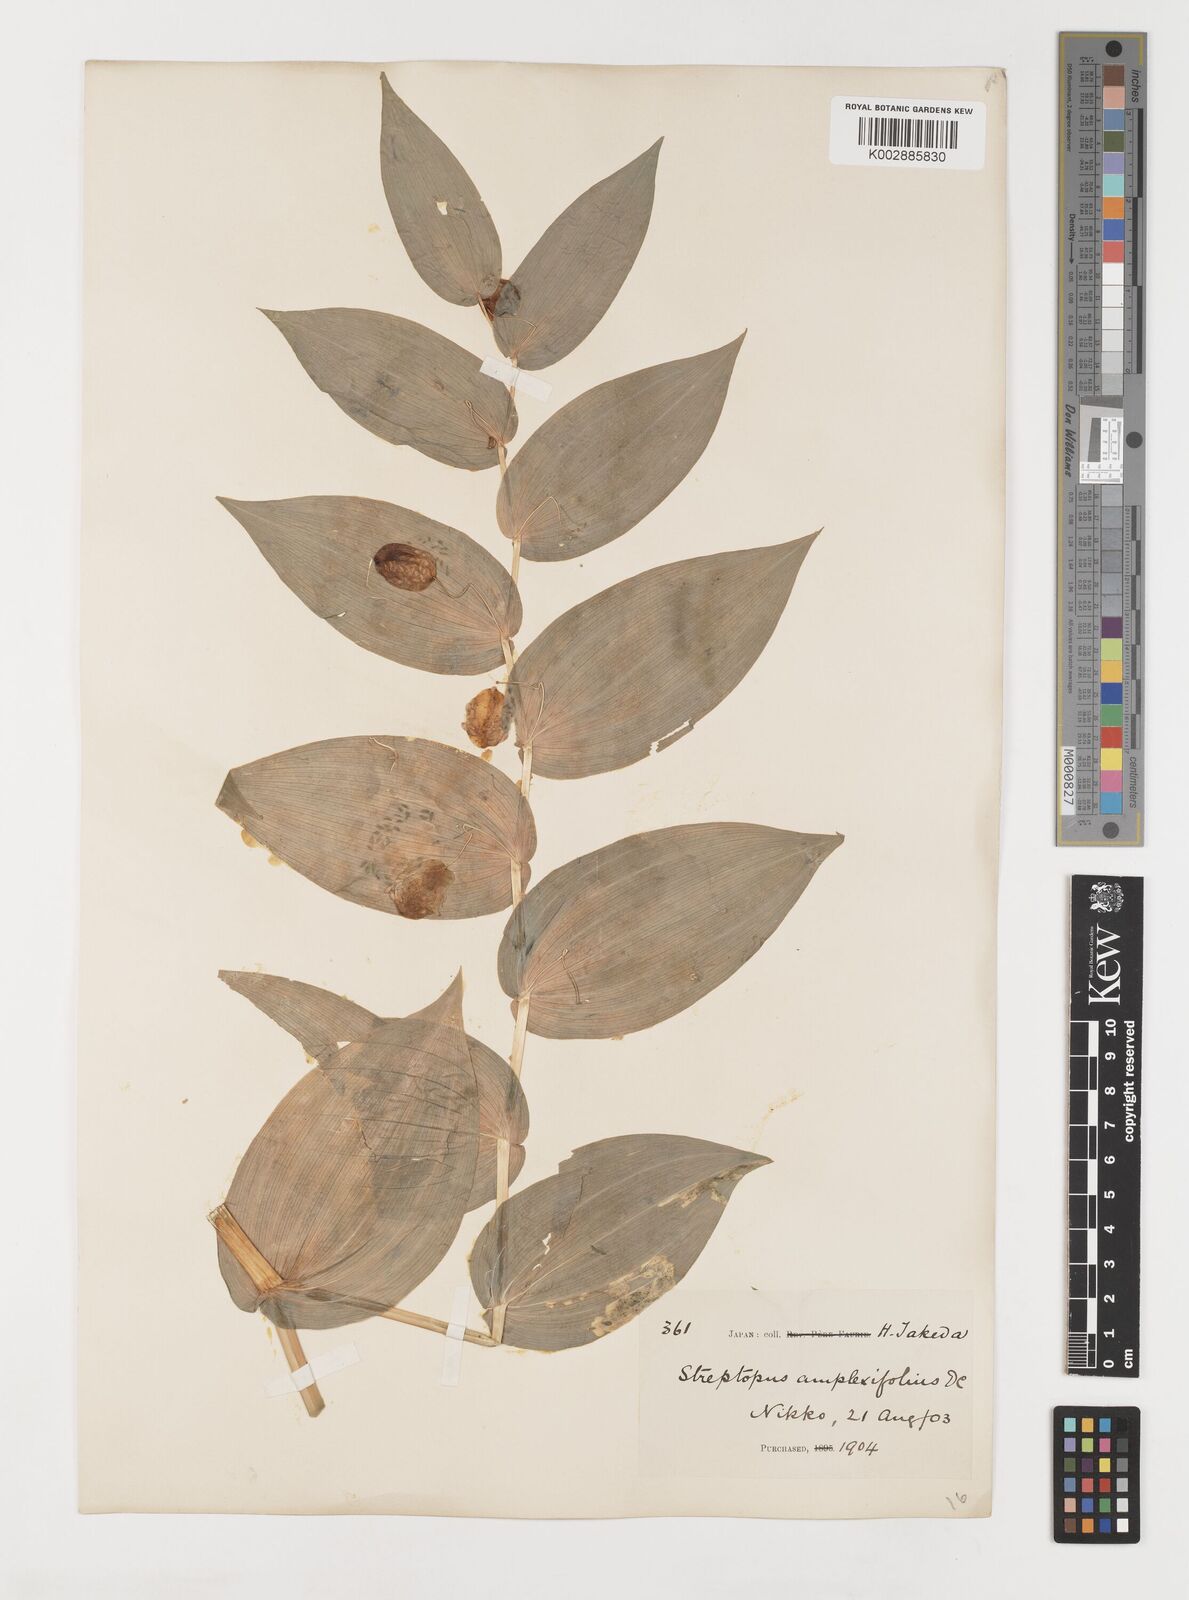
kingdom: Plantae
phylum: Tracheophyta
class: Liliopsida
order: Liliales
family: Liliaceae
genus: Streptopus
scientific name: Streptopus amplexifolius
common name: Clasp twisted stalk
